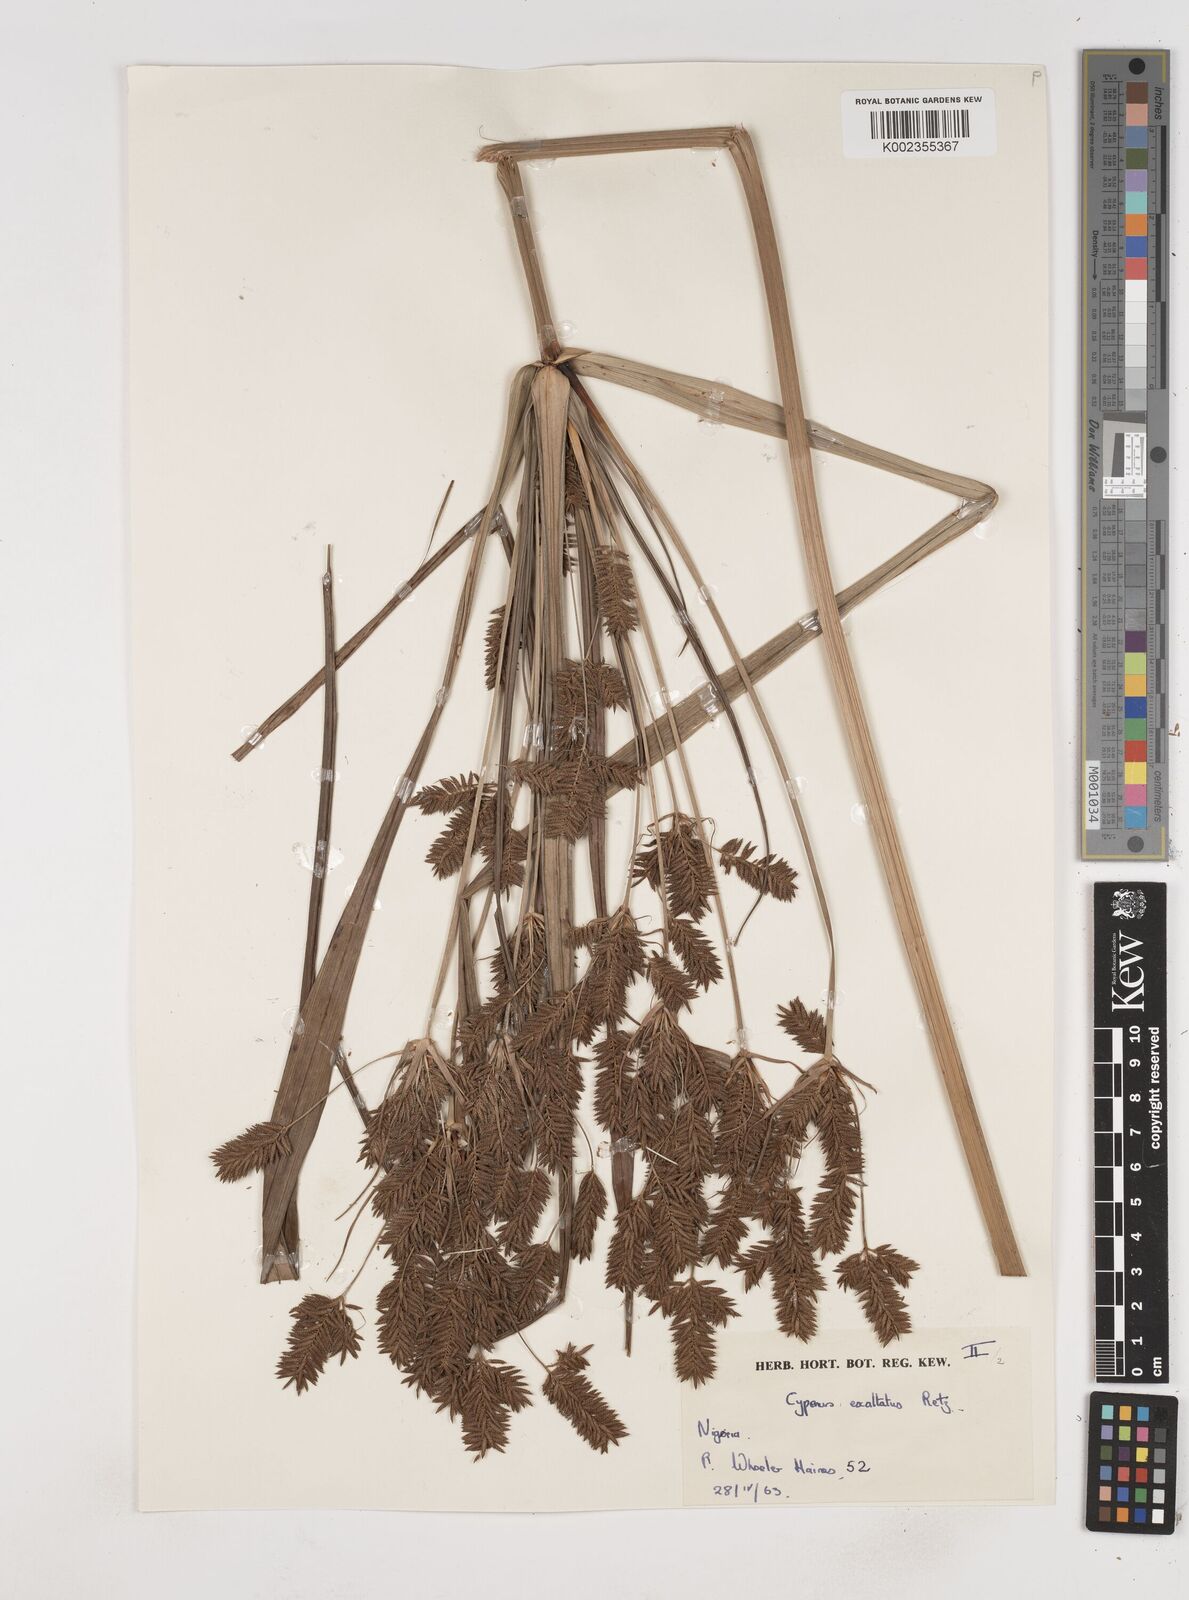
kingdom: Plantae
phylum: Tracheophyta
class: Liliopsida
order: Poales
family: Cyperaceae
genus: Cyperus
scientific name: Cyperus exaltatus
